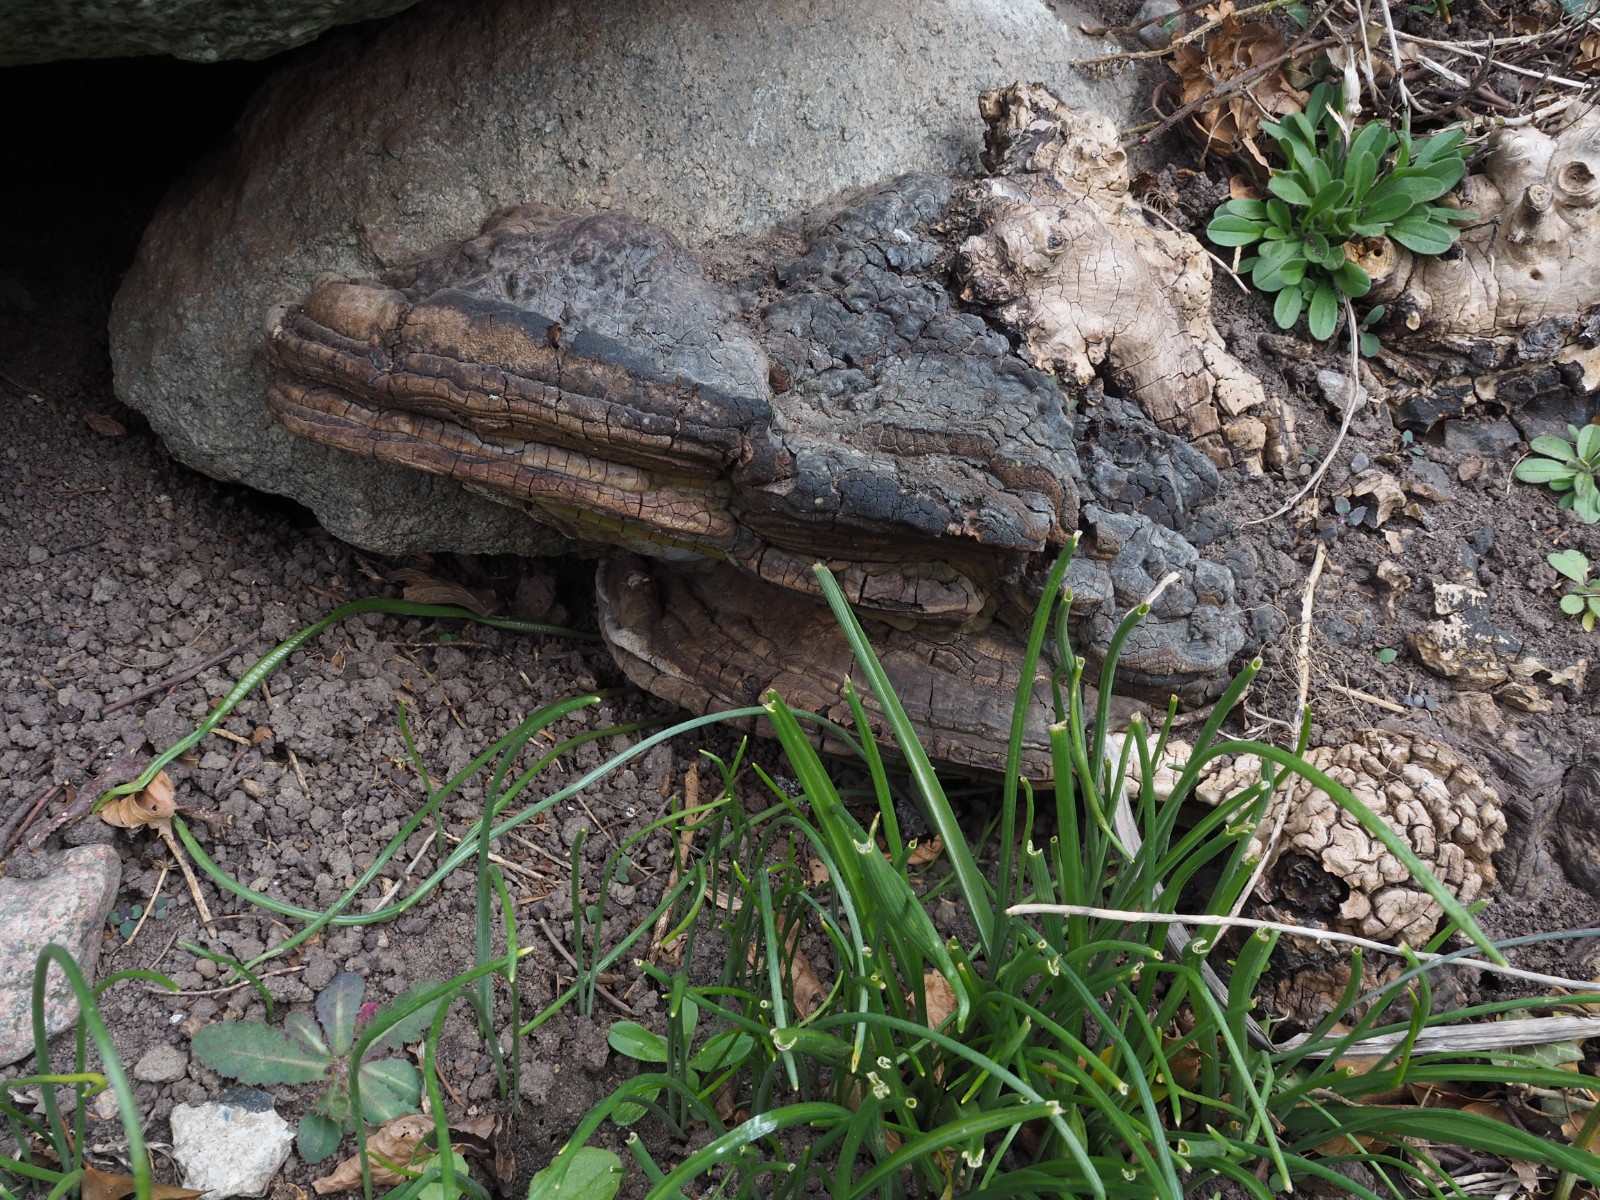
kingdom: Fungi
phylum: Basidiomycota
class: Agaricomycetes
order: Polyporales
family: Polyporaceae
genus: Ganoderma
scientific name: Ganoderma adspersum
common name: grov lakporesvamp
